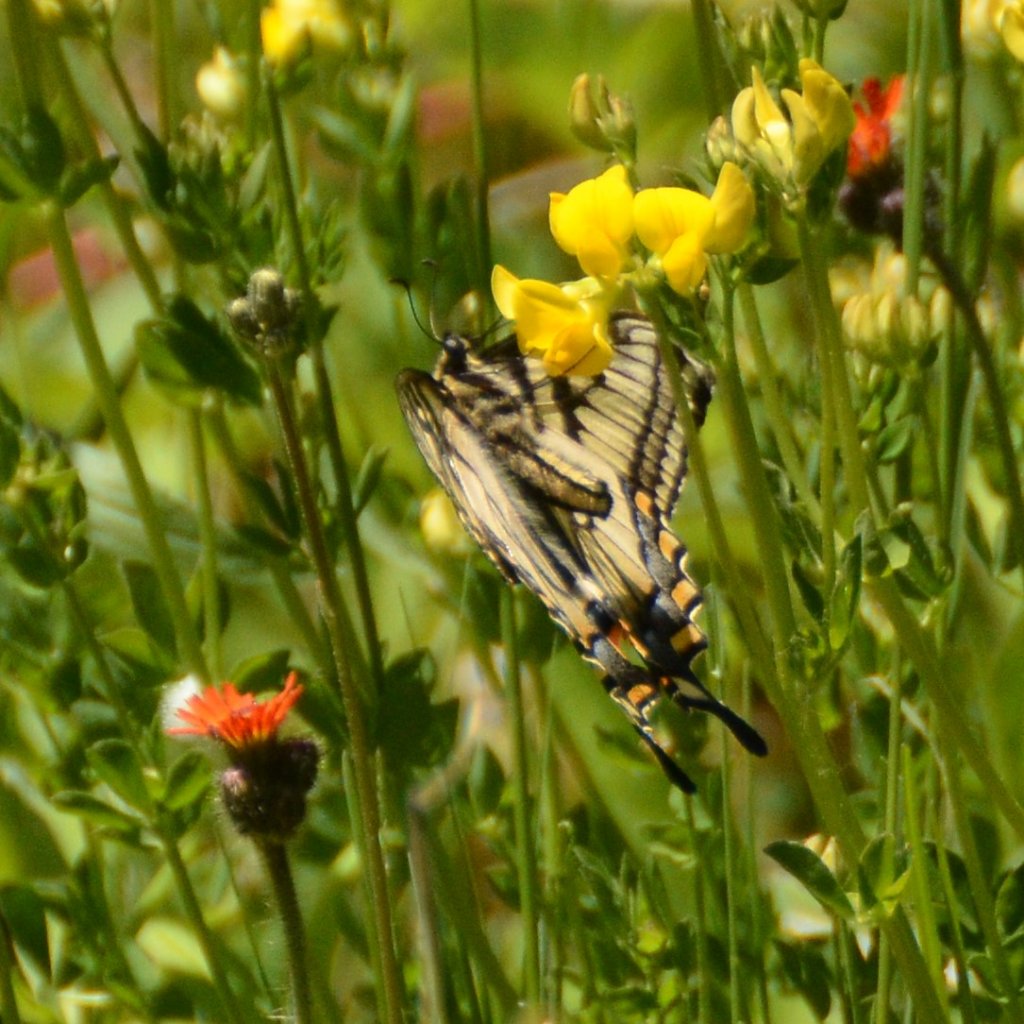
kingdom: Animalia
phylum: Arthropoda
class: Insecta
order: Lepidoptera
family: Papilionidae
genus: Pterourus
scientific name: Pterourus canadensis
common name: Canadian Tiger Swallowtail
